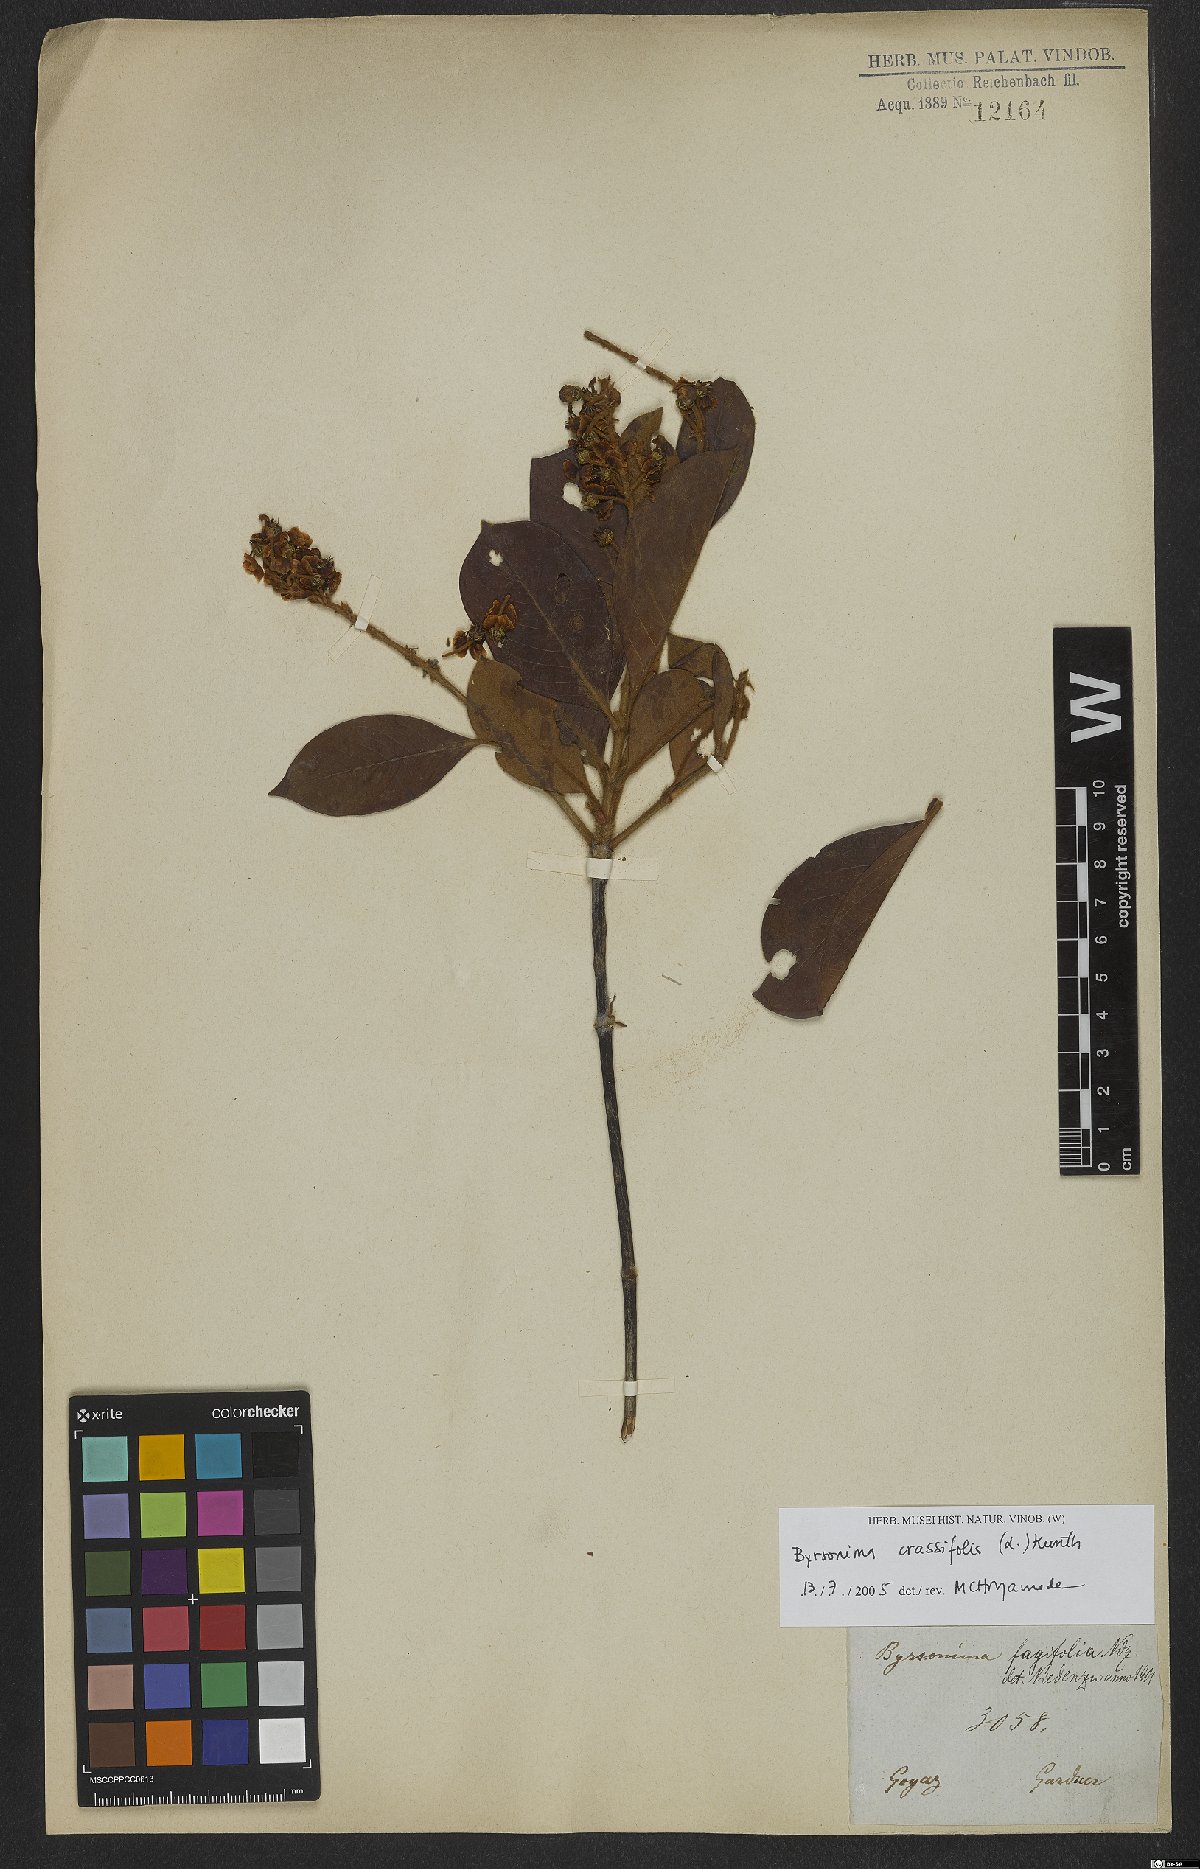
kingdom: Plantae
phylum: Tracheophyta
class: Magnoliopsida
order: Malpighiales
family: Malpighiaceae
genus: Byrsonima
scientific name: Byrsonima crassifolia
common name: Golden spoon
